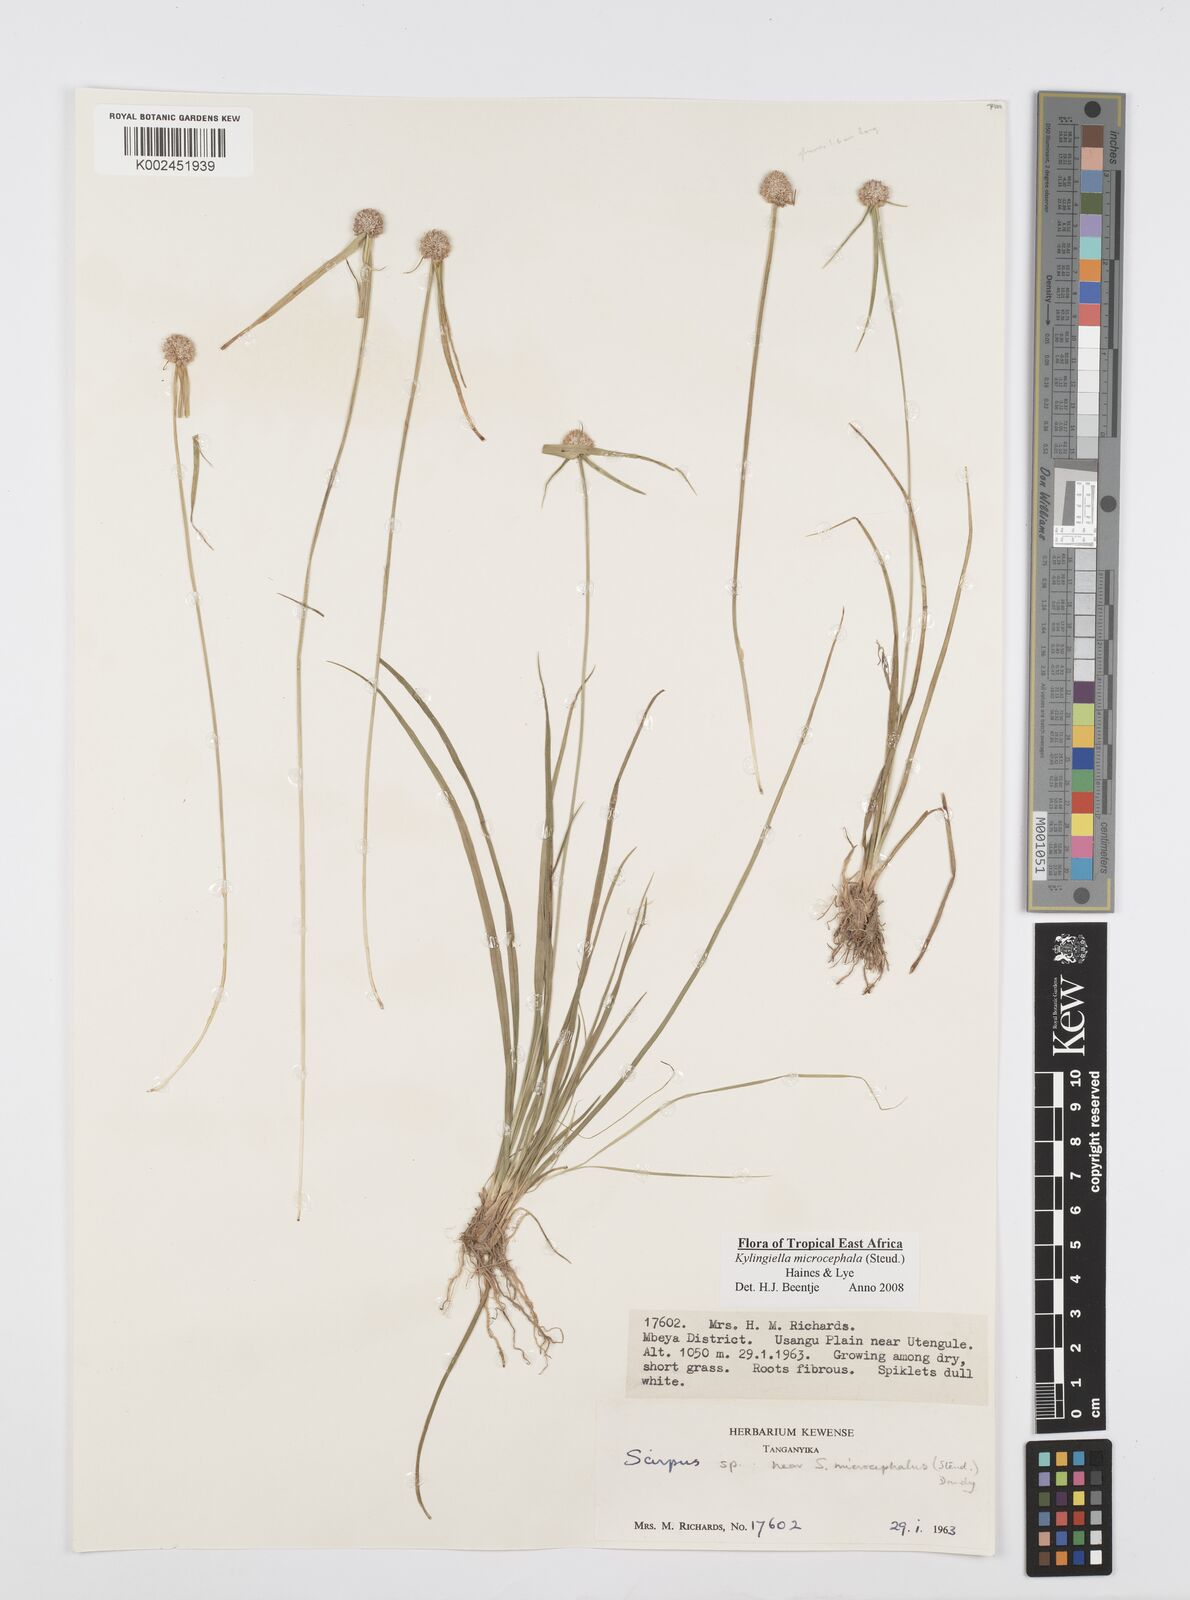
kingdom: Plantae
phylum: Tracheophyta
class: Liliopsida
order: Poales
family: Cyperaceae
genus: Cyperus
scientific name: Cyperus microcephalus
